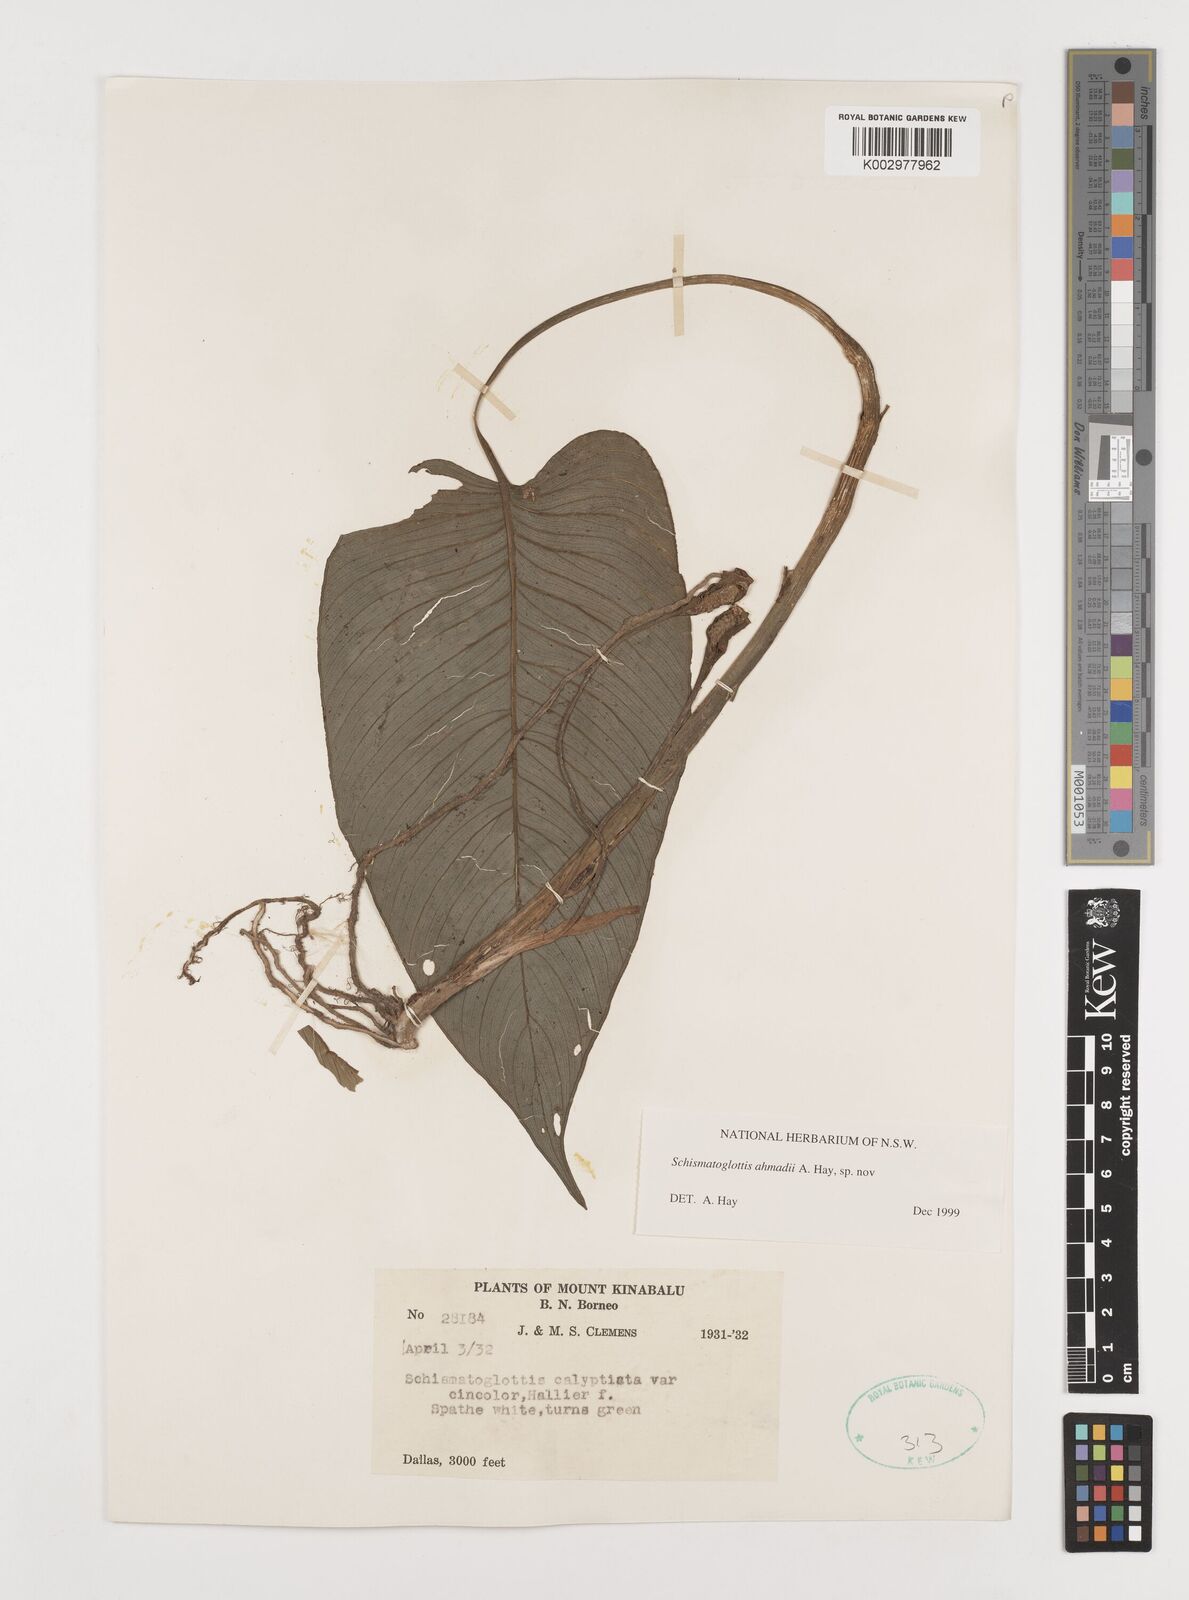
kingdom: Plantae
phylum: Tracheophyta
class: Liliopsida
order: Alismatales
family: Araceae
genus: Schismatoglottis
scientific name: Schismatoglottis ahmadii
